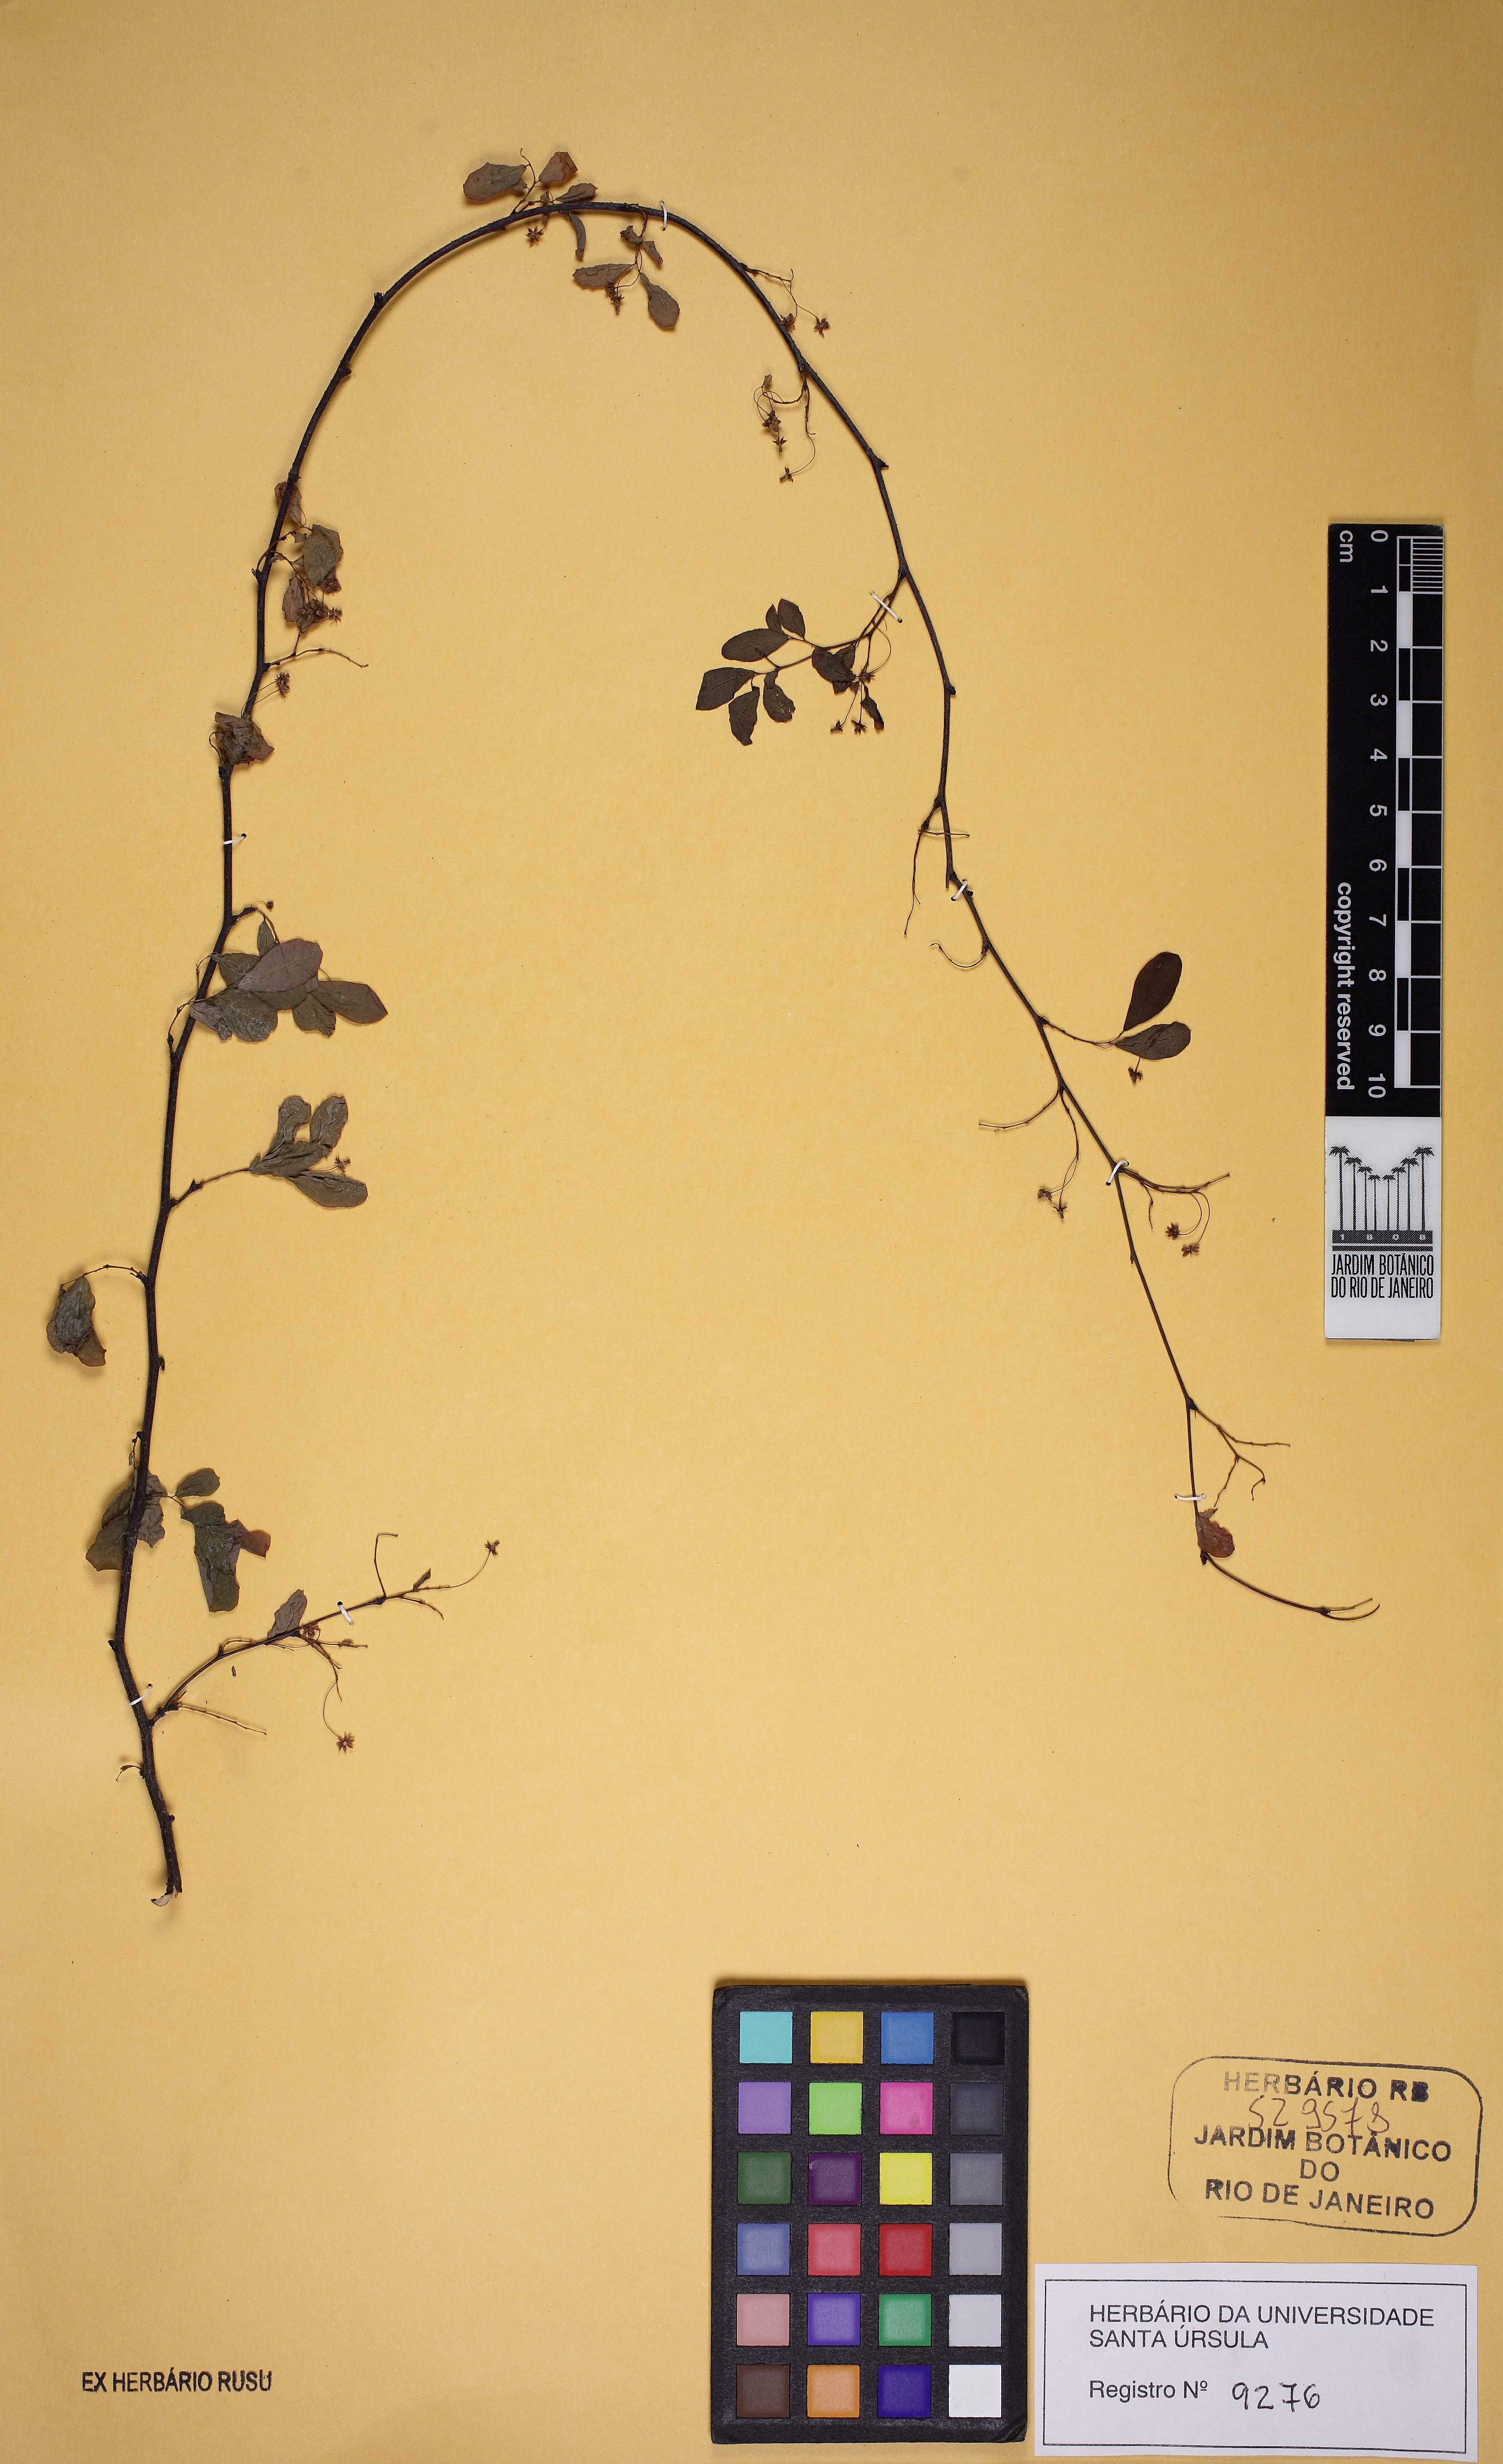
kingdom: Plantae
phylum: Tracheophyta
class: Magnoliopsida
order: Malpighiales
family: Phyllanthaceae
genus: Phyllanthus
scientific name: Phyllanthus
